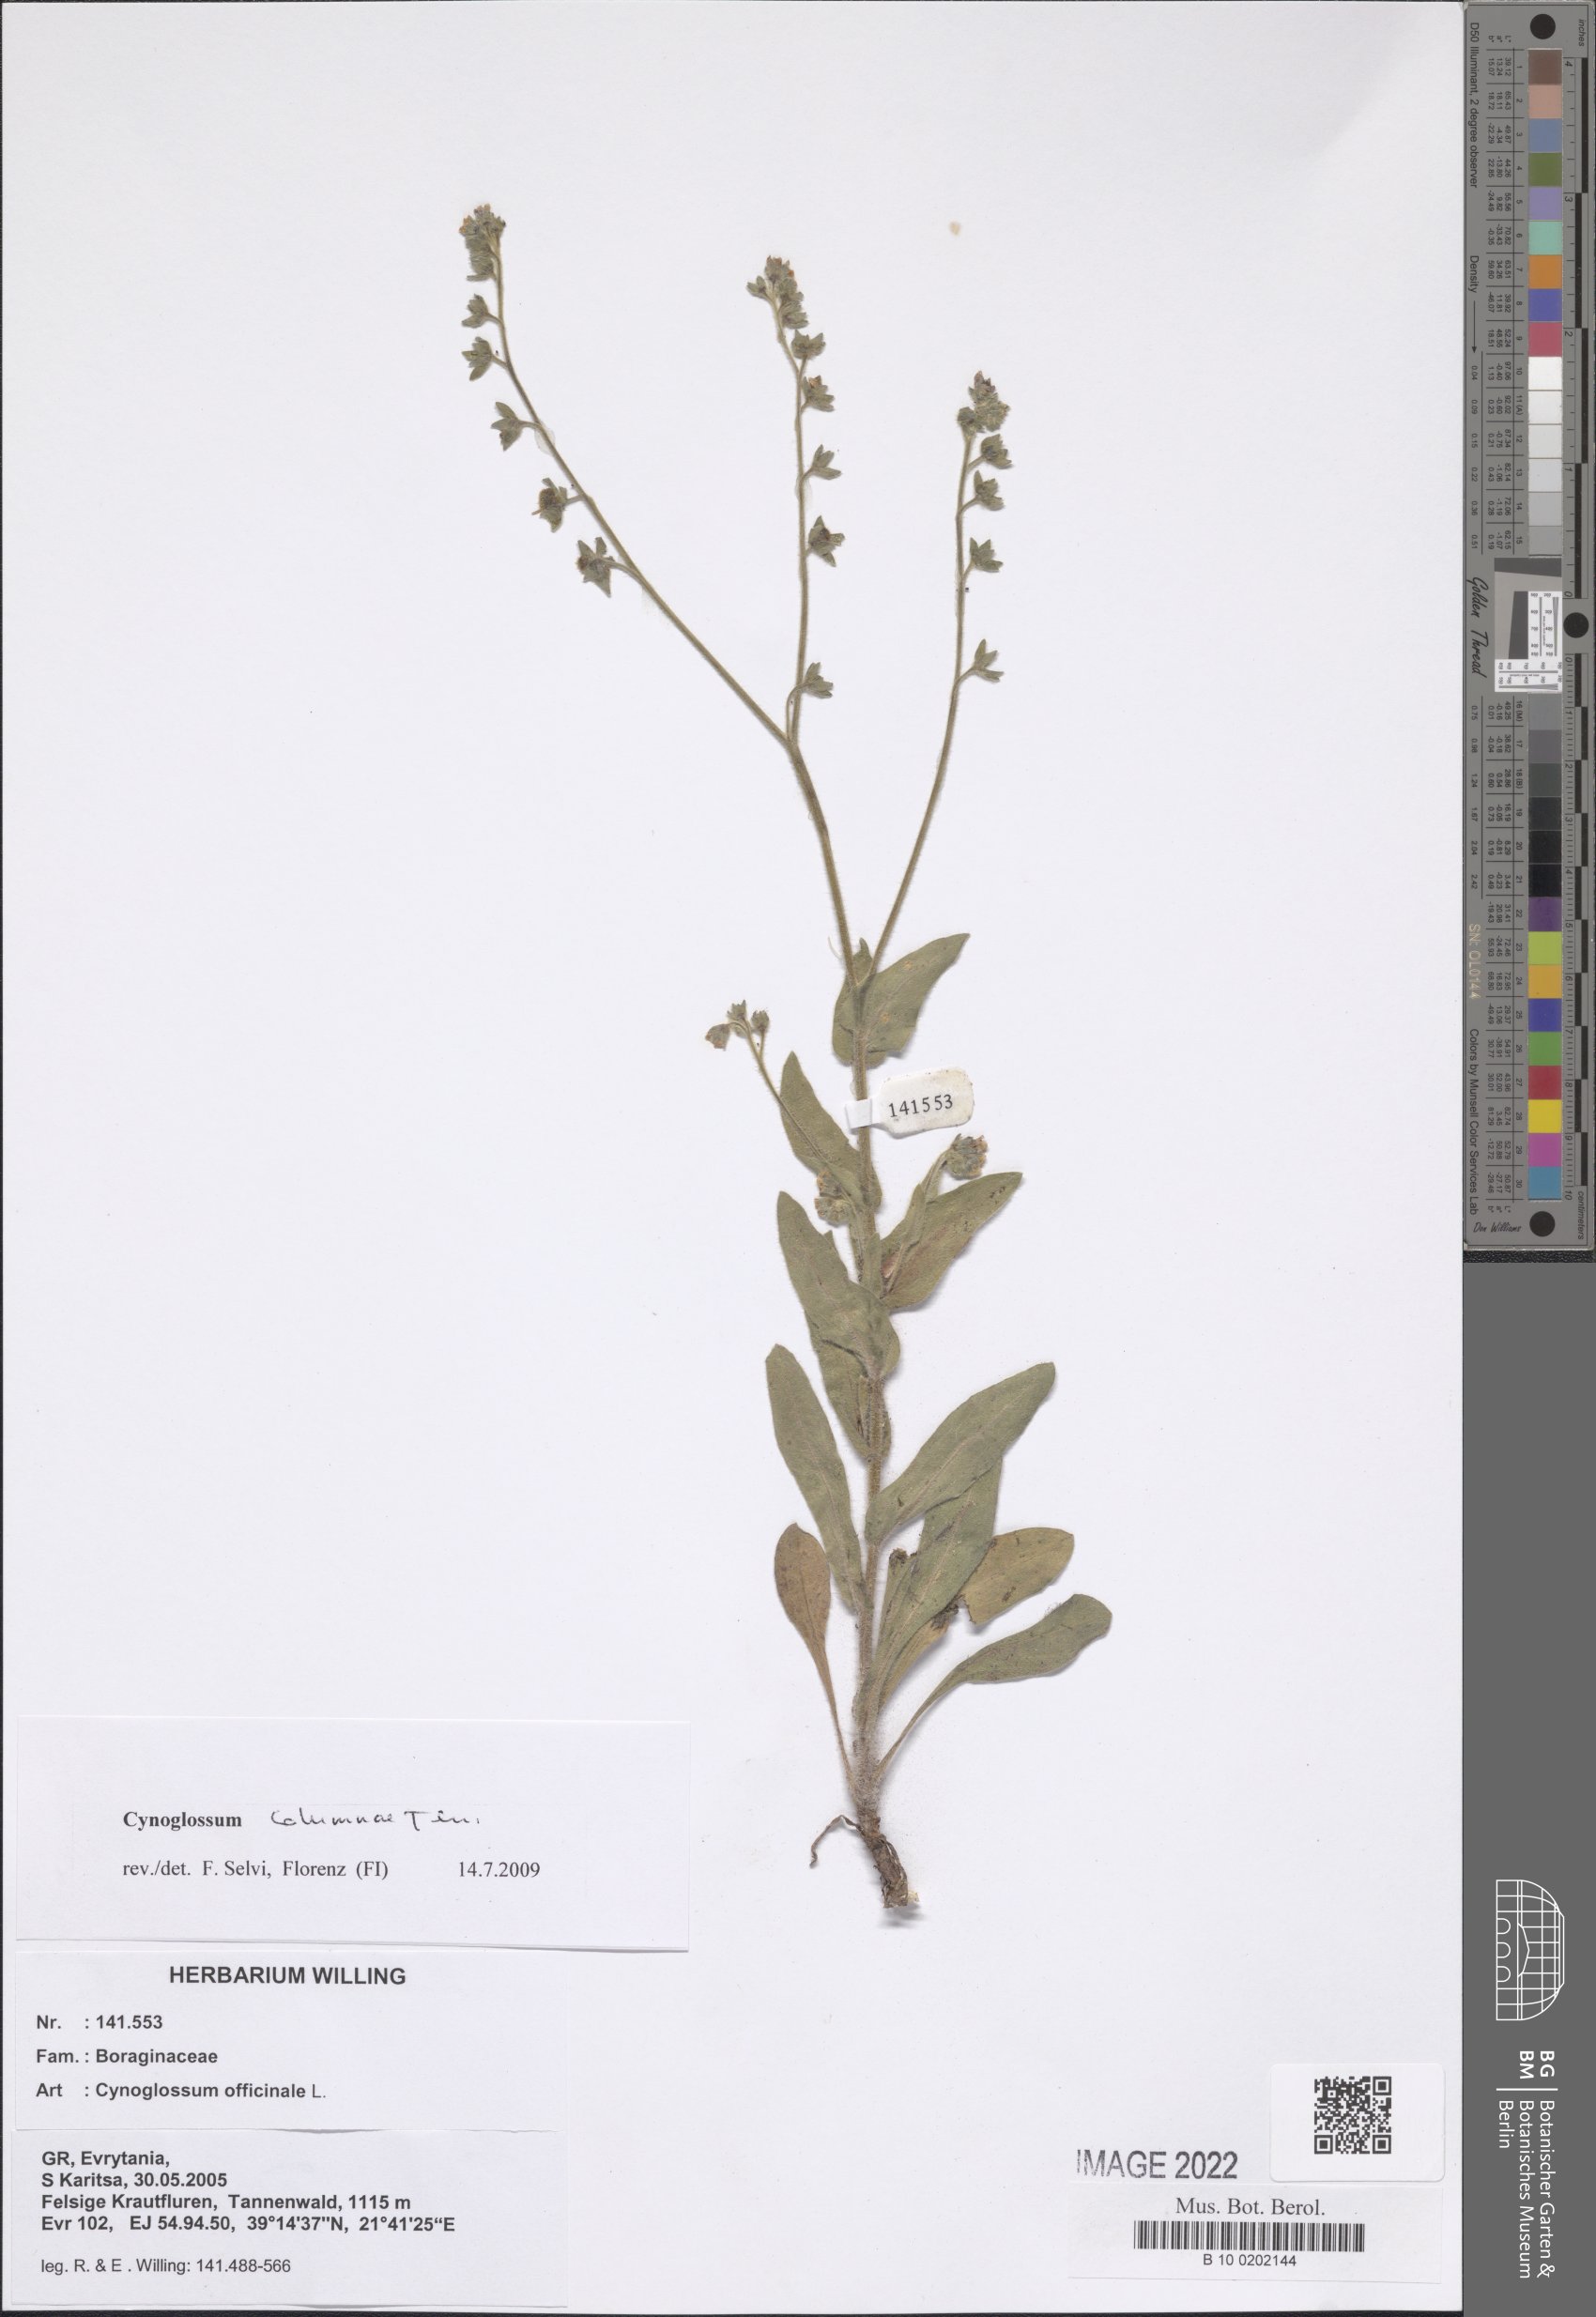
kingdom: Plantae
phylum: Tracheophyta
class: Magnoliopsida
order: Boraginales
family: Boraginaceae
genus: Rindera
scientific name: Rindera columnae
